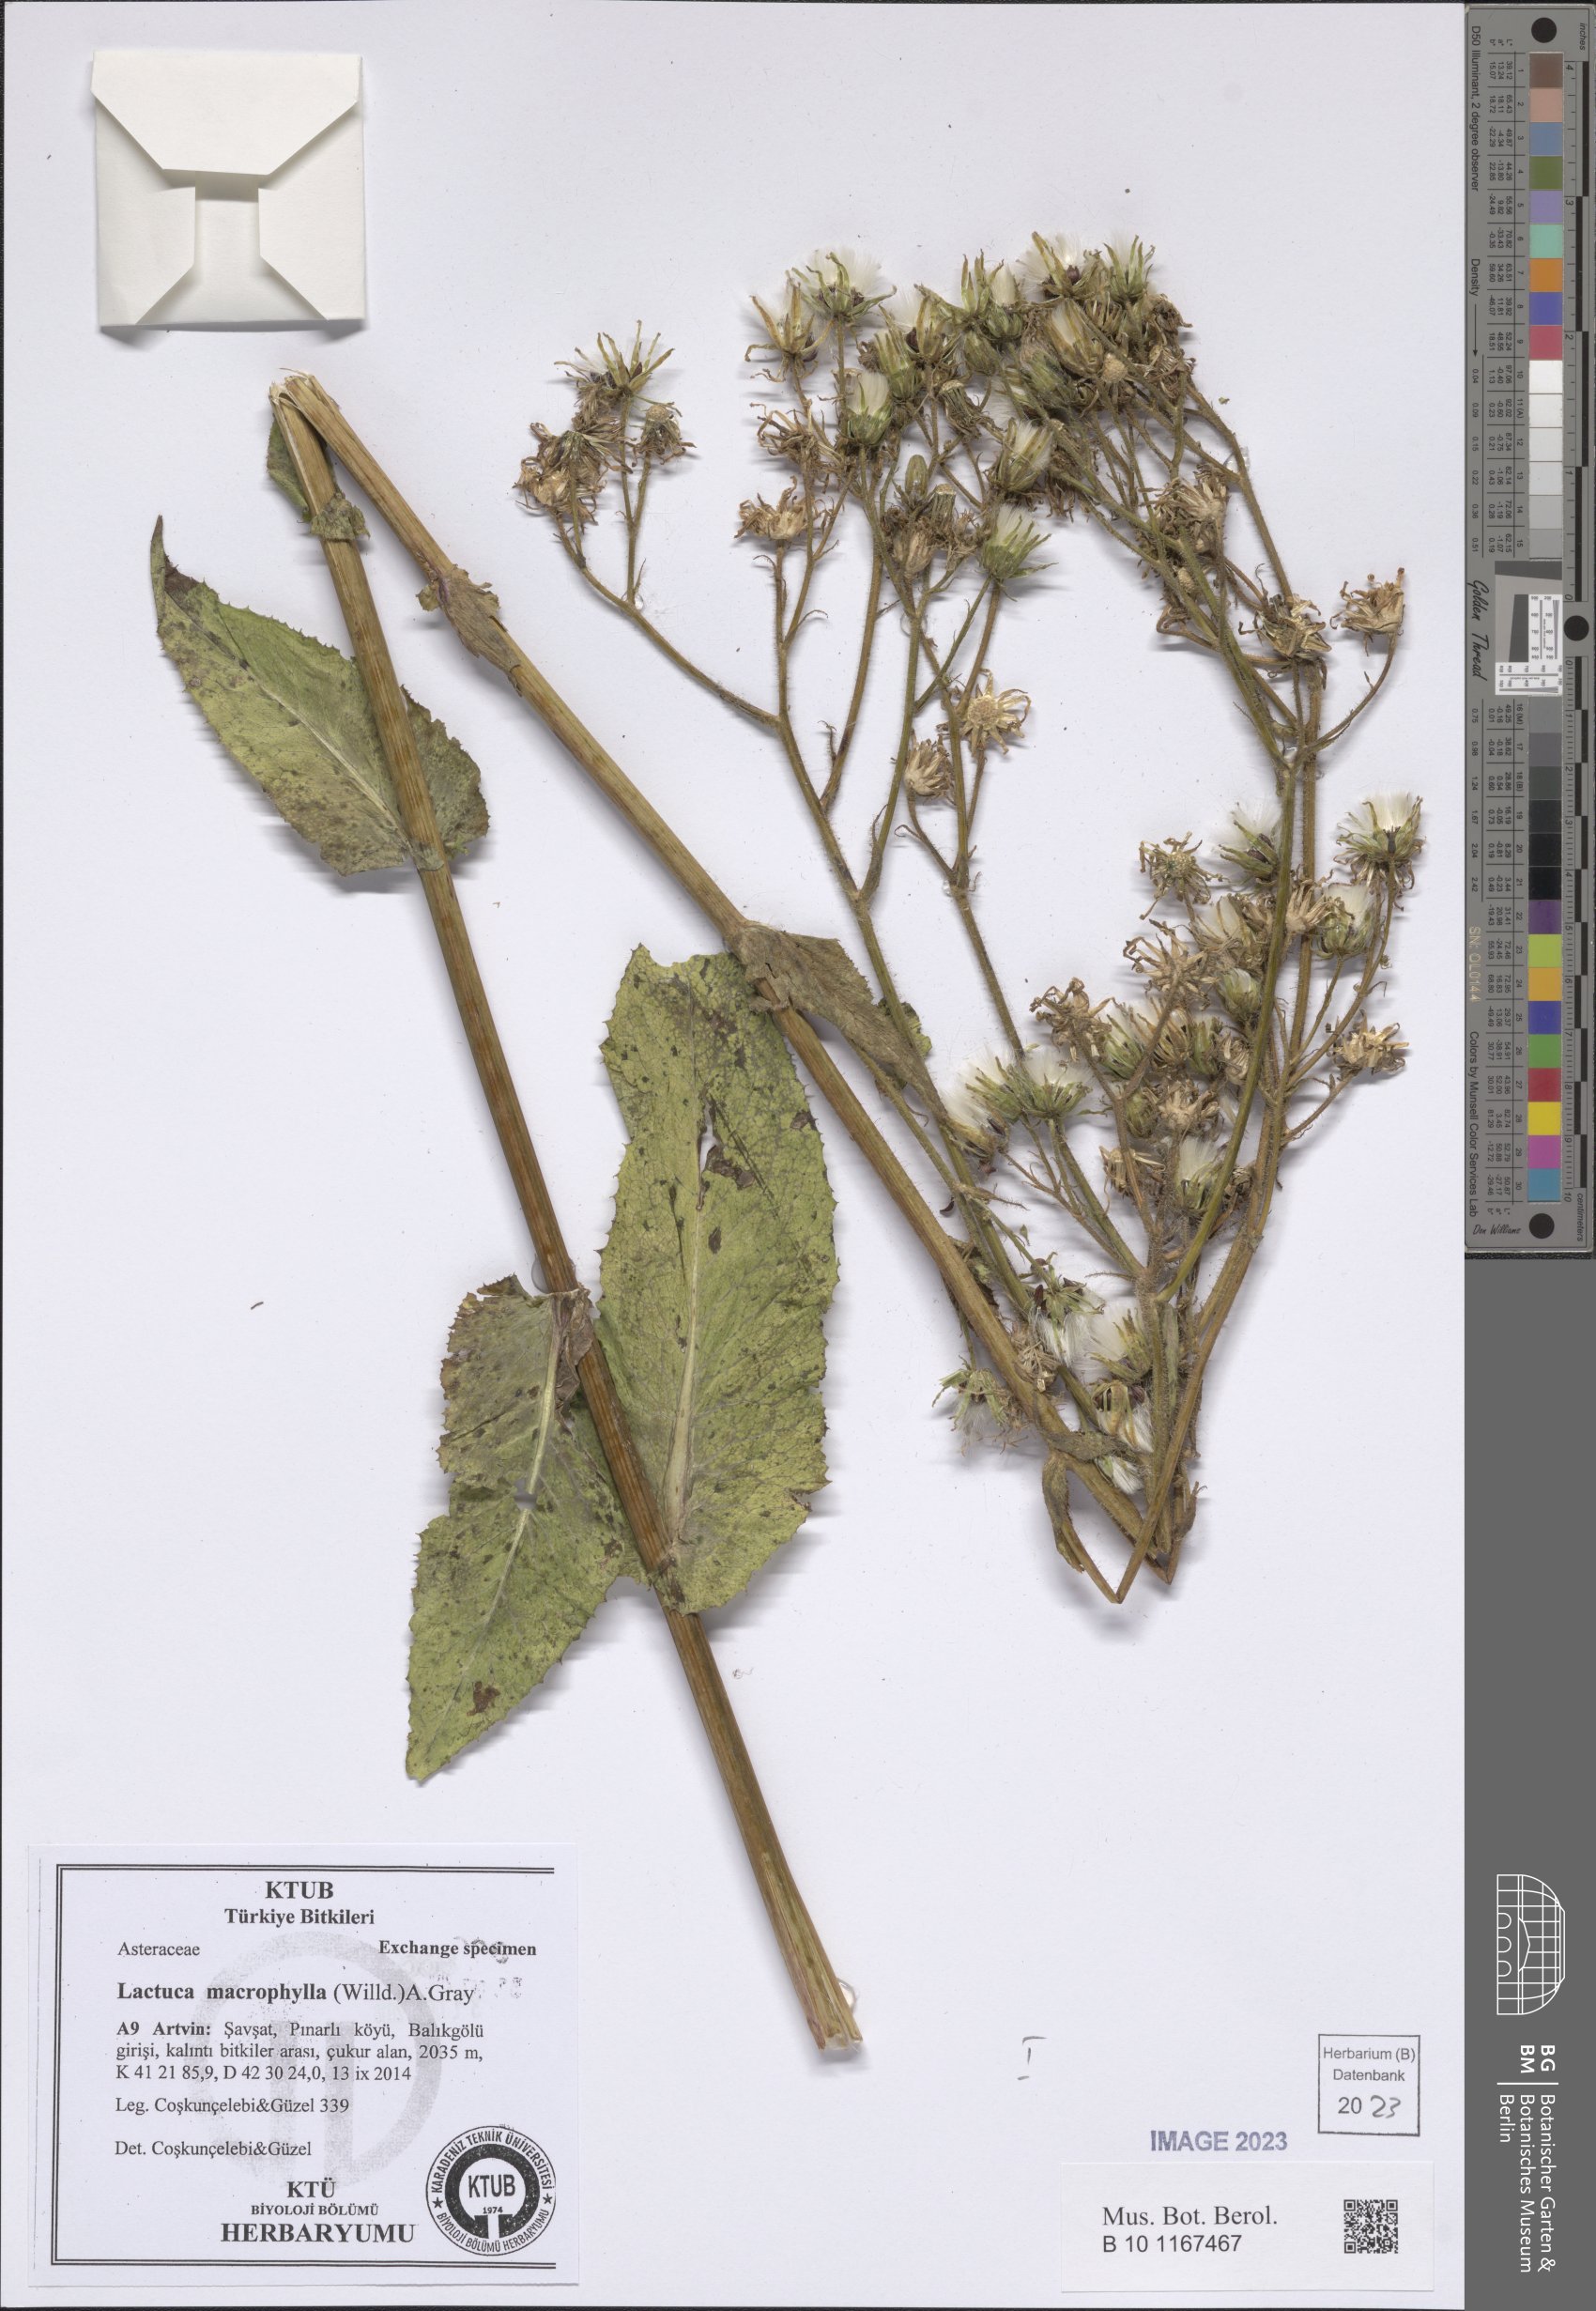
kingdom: Plantae
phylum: Tracheophyta
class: Magnoliopsida
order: Asterales
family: Asteraceae
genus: Lactuca
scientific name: Lactuca macrophylla
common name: Common blue-sow-thistle
